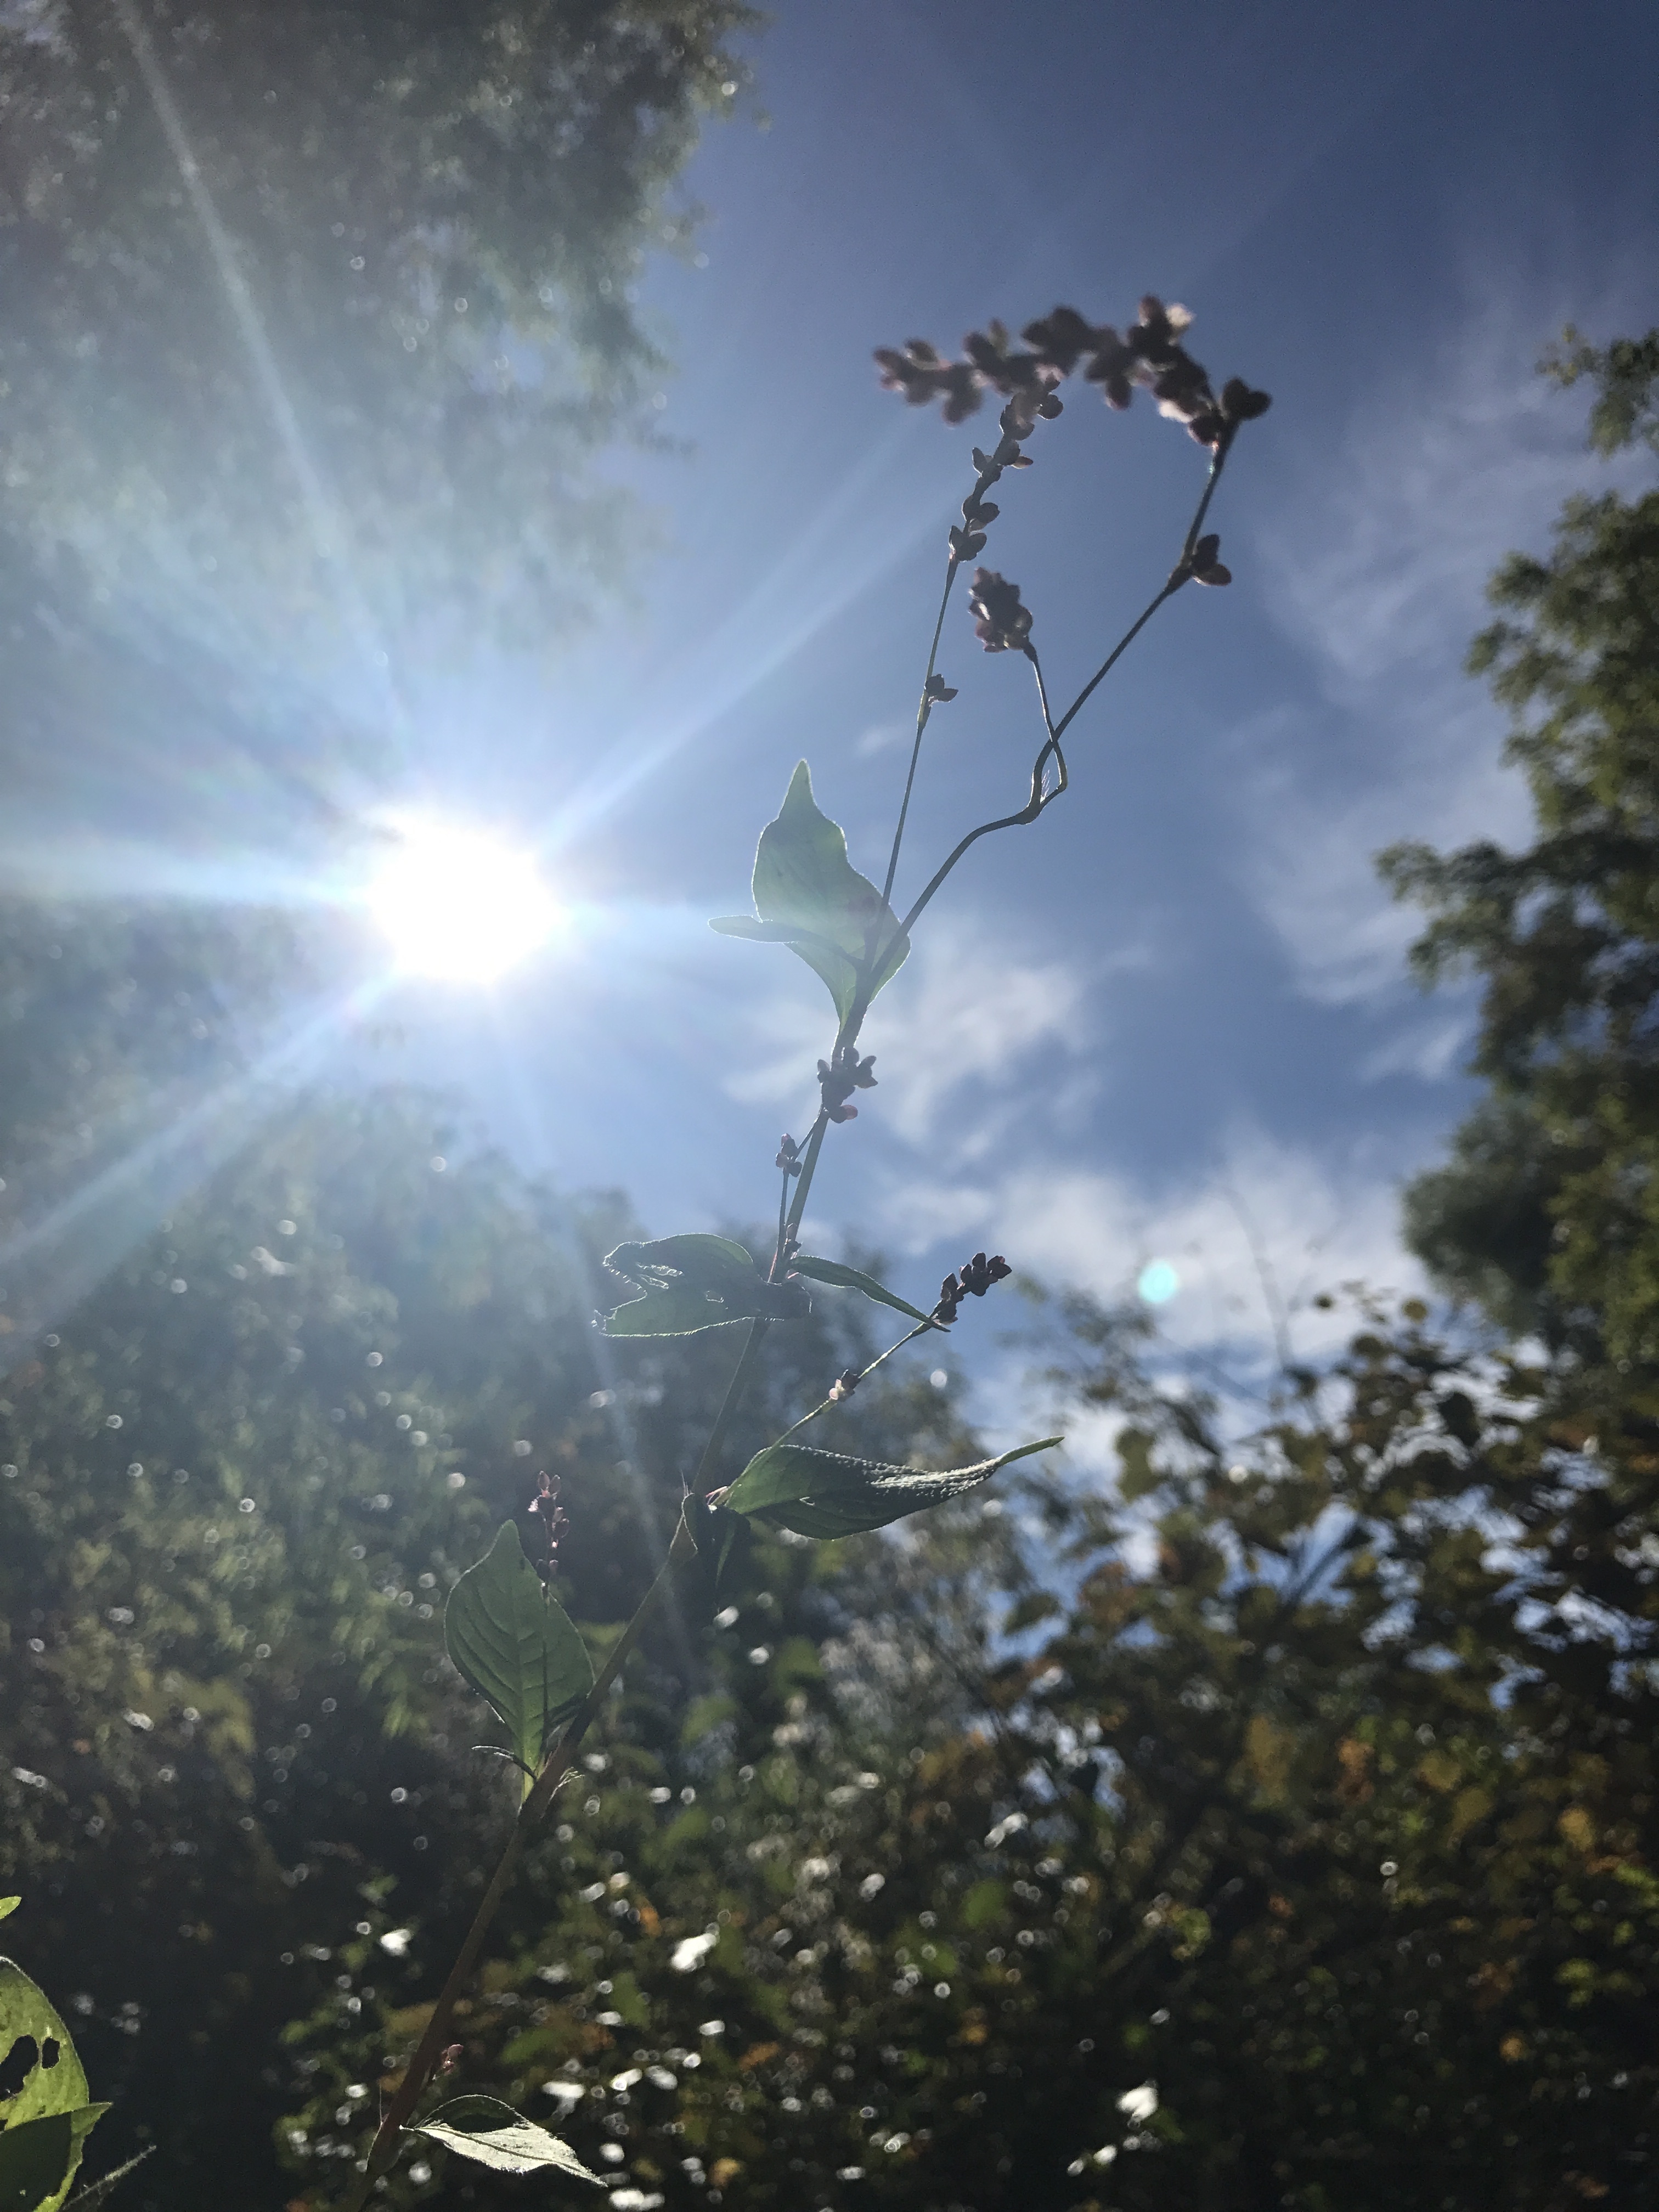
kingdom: Plantae
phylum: Tracheophyta
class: Magnoliopsida
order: Caryophyllales
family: Polygonaceae
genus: Persicaria
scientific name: Persicaria longiseta
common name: Low Smartweed
